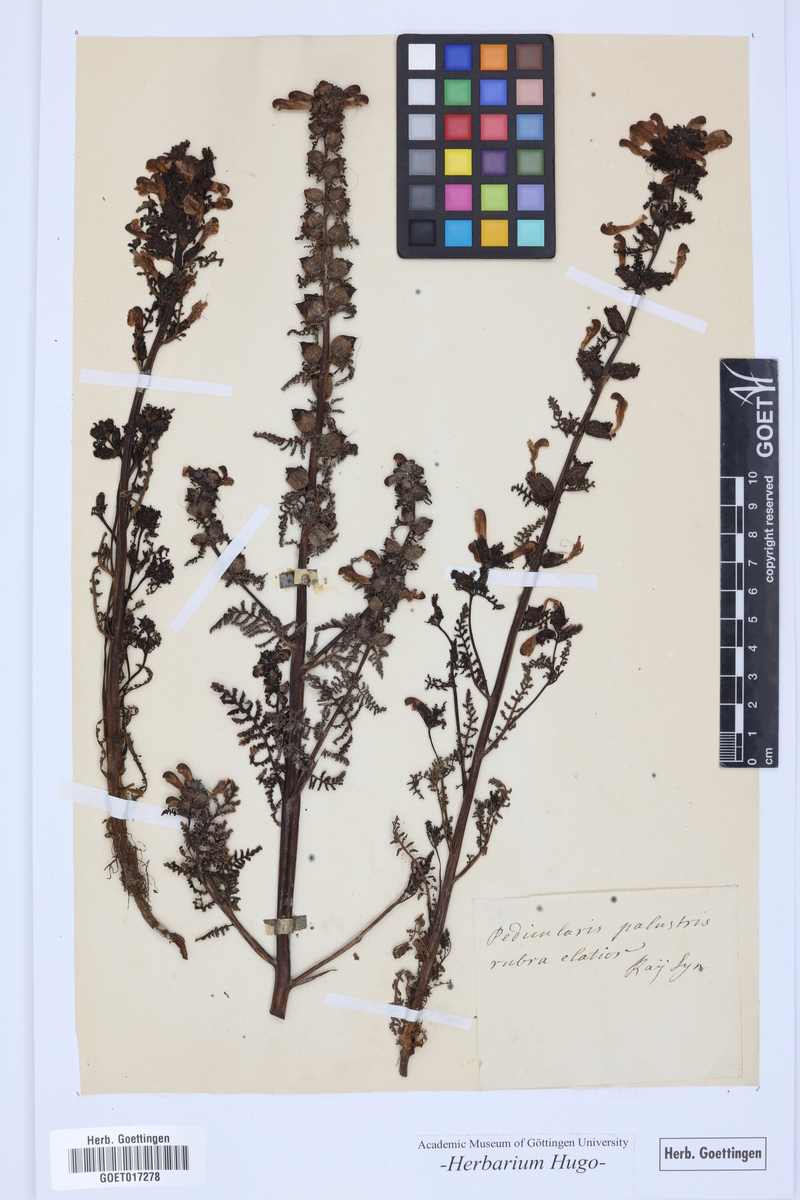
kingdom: Plantae
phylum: Tracheophyta
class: Magnoliopsida
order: Lamiales
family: Orobanchaceae
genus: Pedicularis
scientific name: Pedicularis palustris
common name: Marsh lousewort
